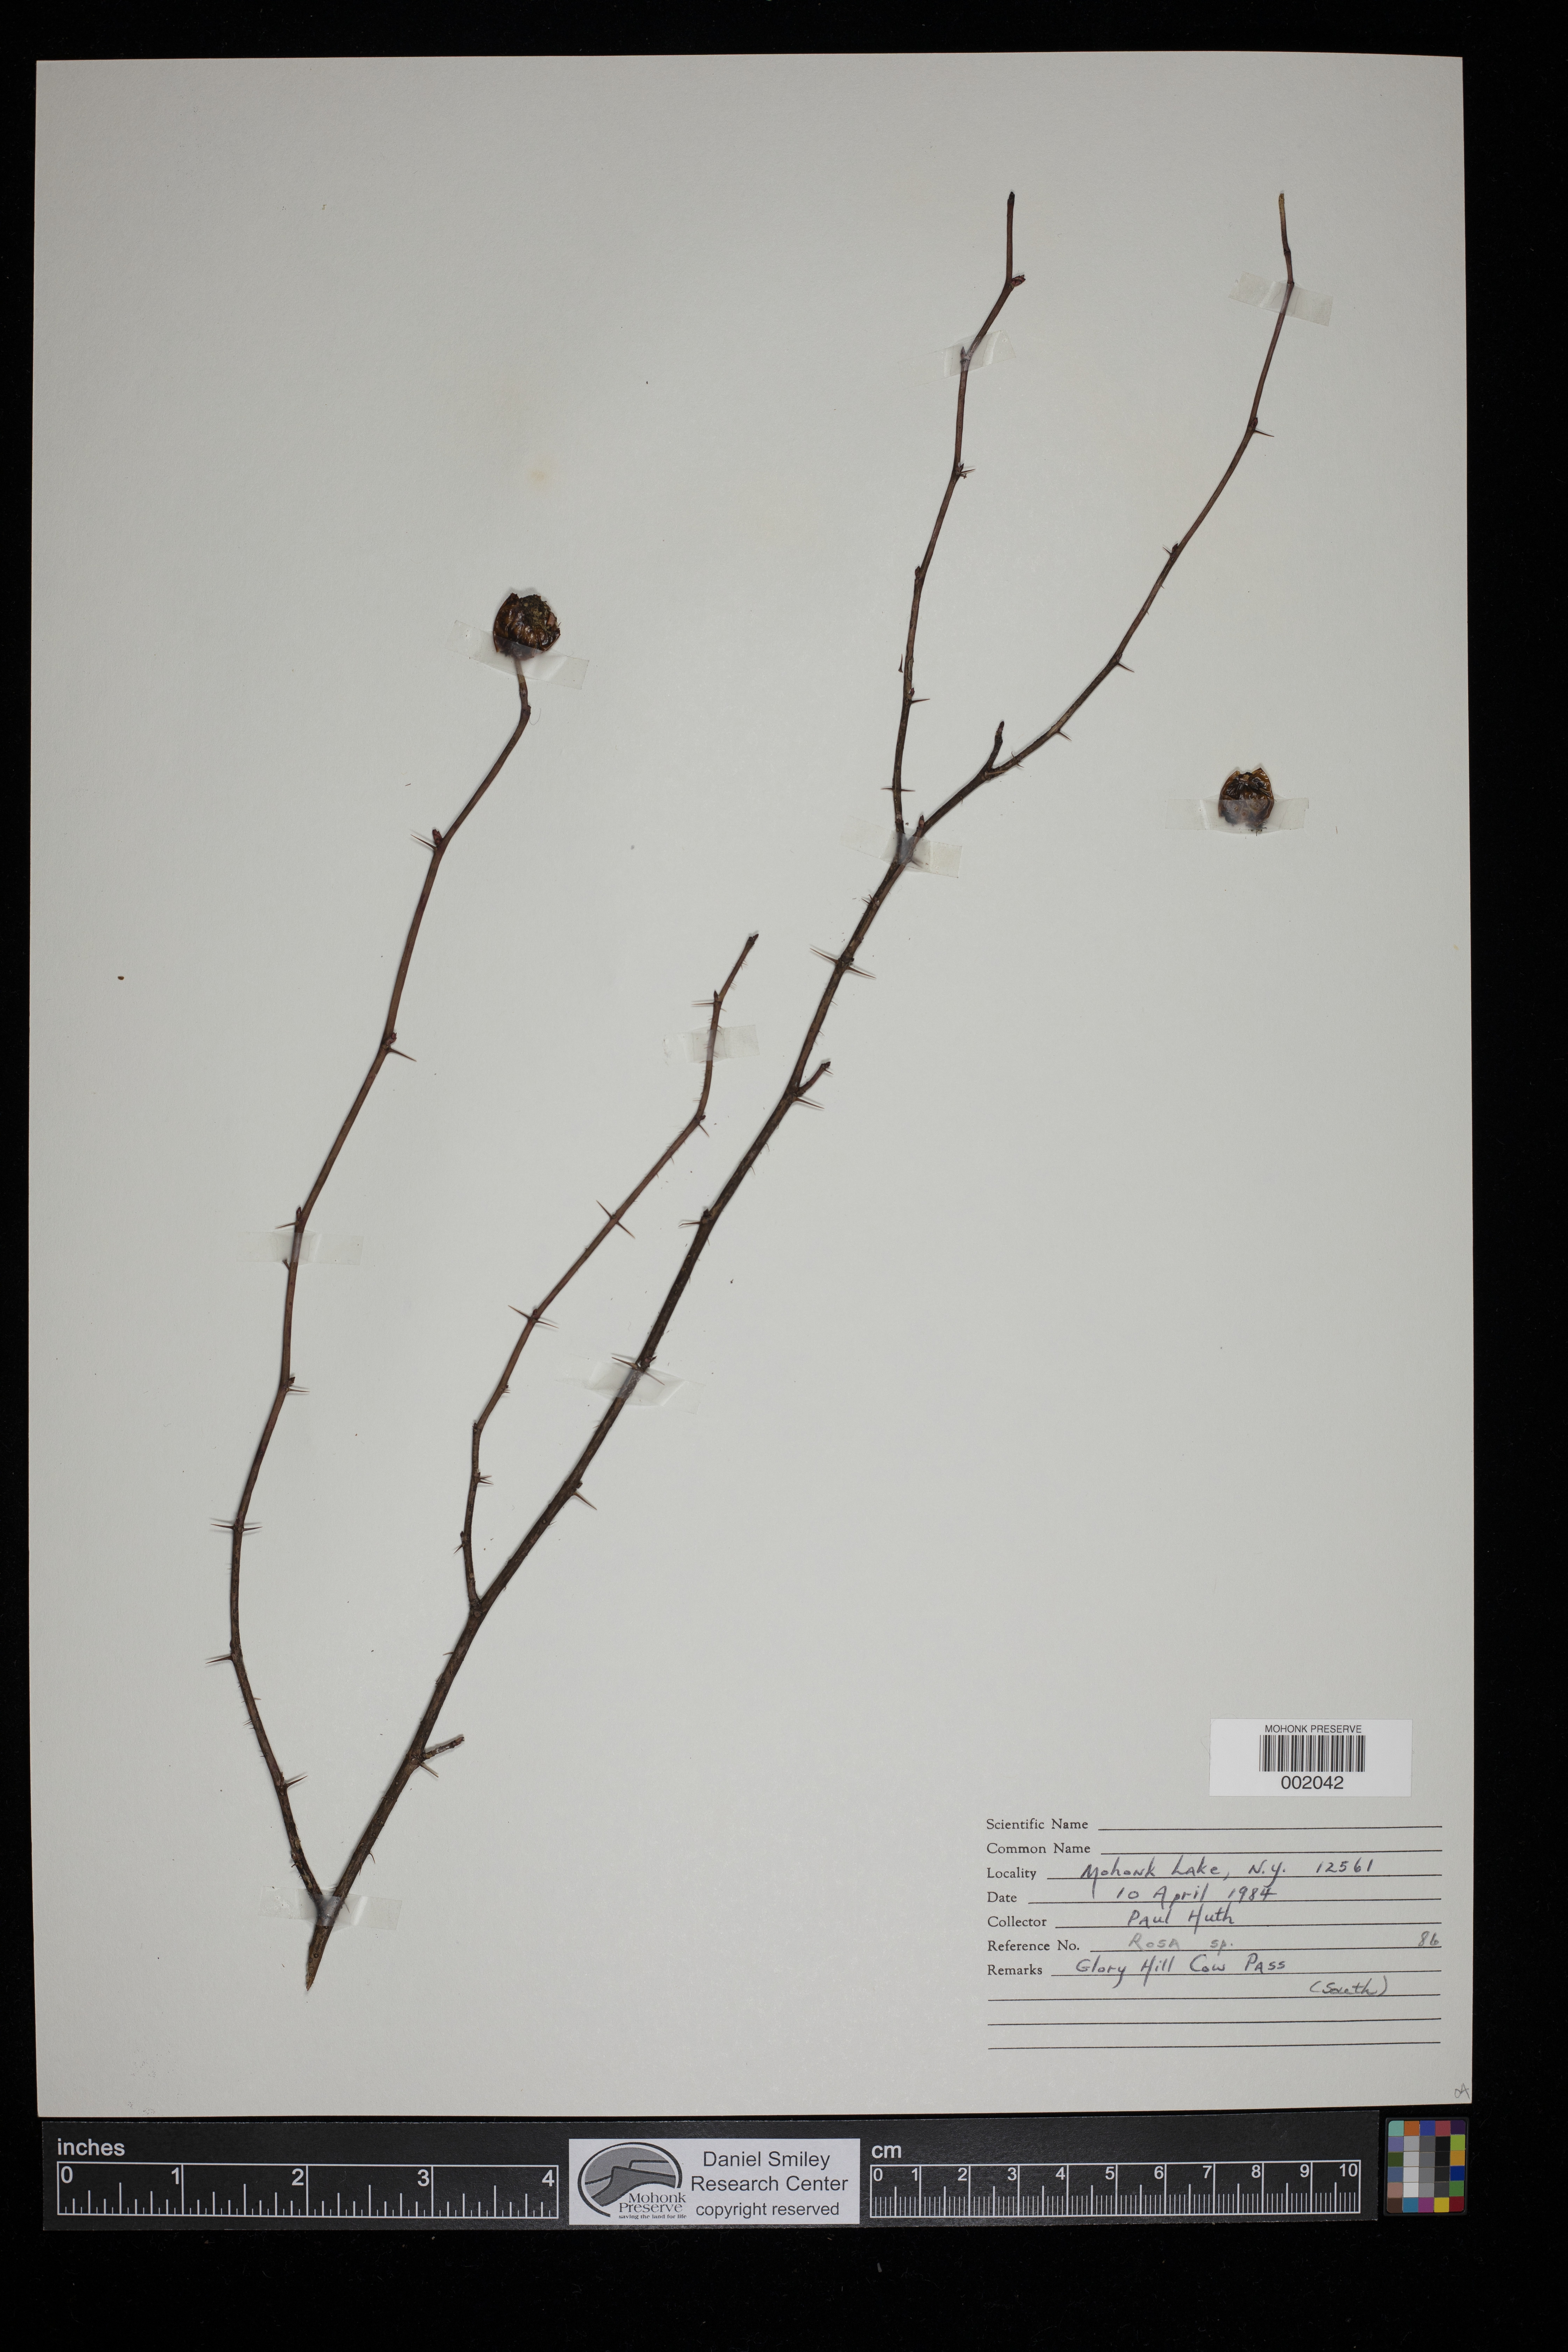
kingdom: Plantae
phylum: Tracheophyta
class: Magnoliopsida
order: Rosales
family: Rosaceae
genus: Rosa
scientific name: Rosa
